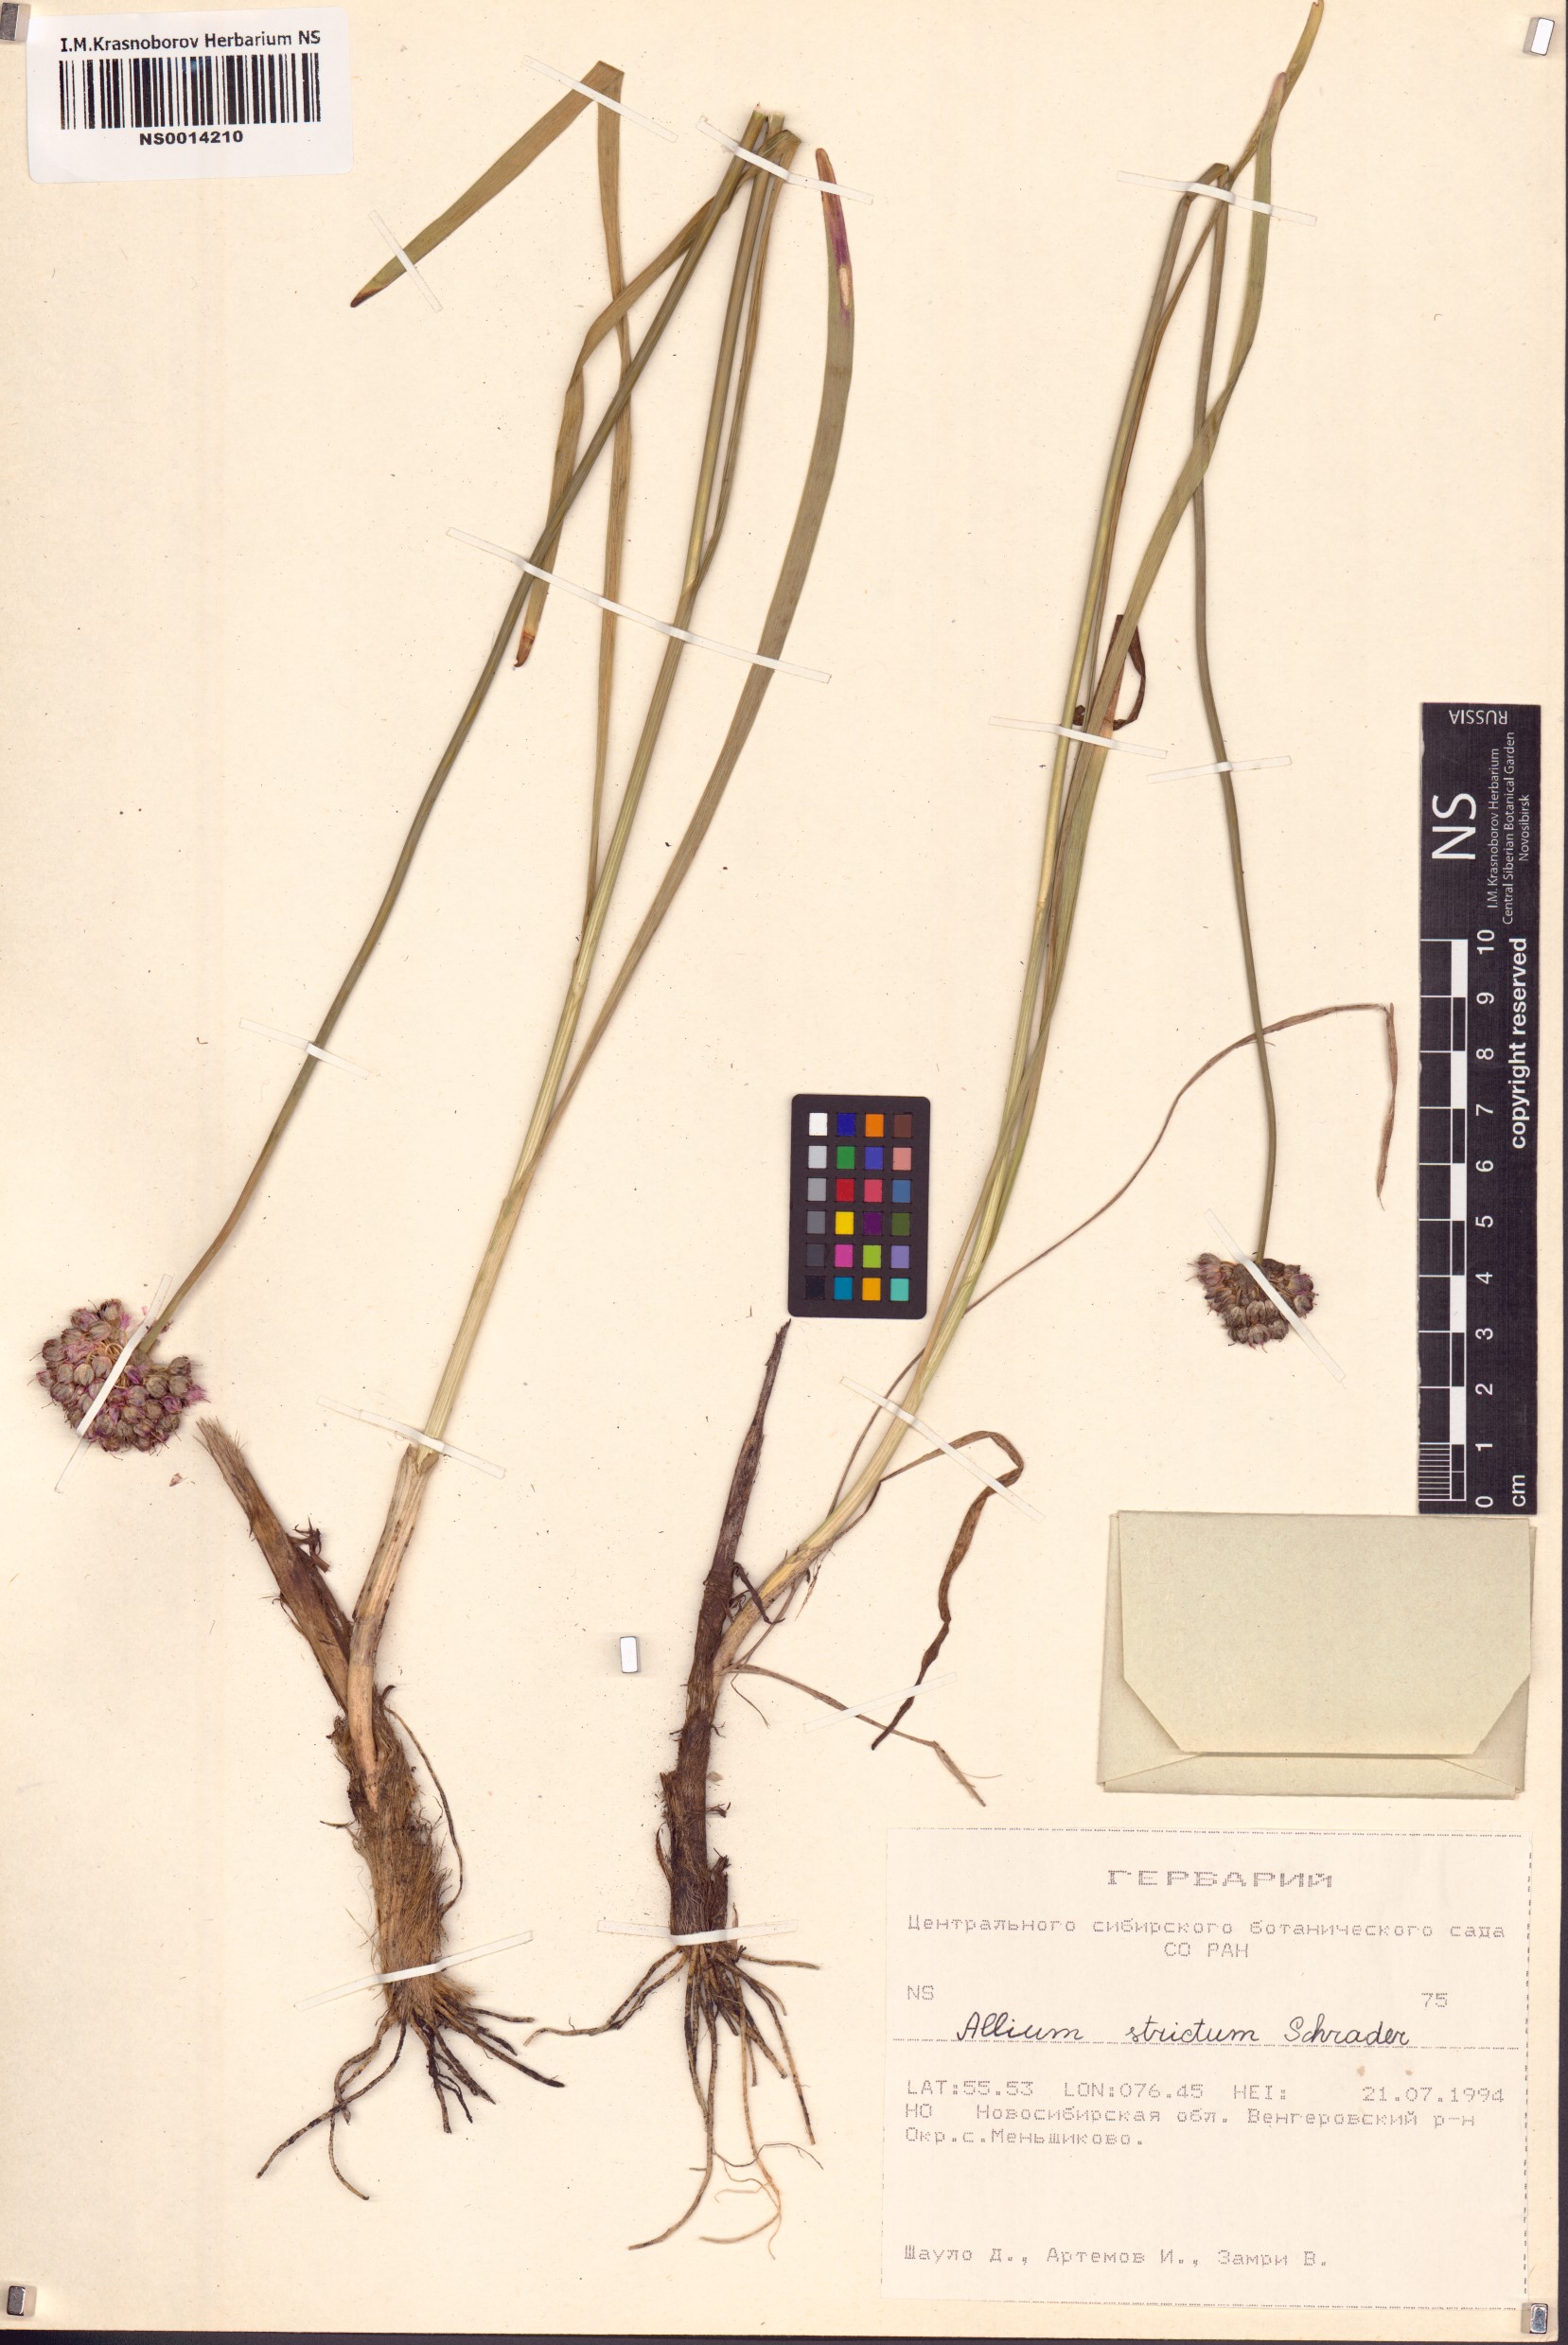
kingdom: Plantae
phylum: Tracheophyta
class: Liliopsida
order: Asparagales
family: Amaryllidaceae
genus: Allium
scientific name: Allium strictum
